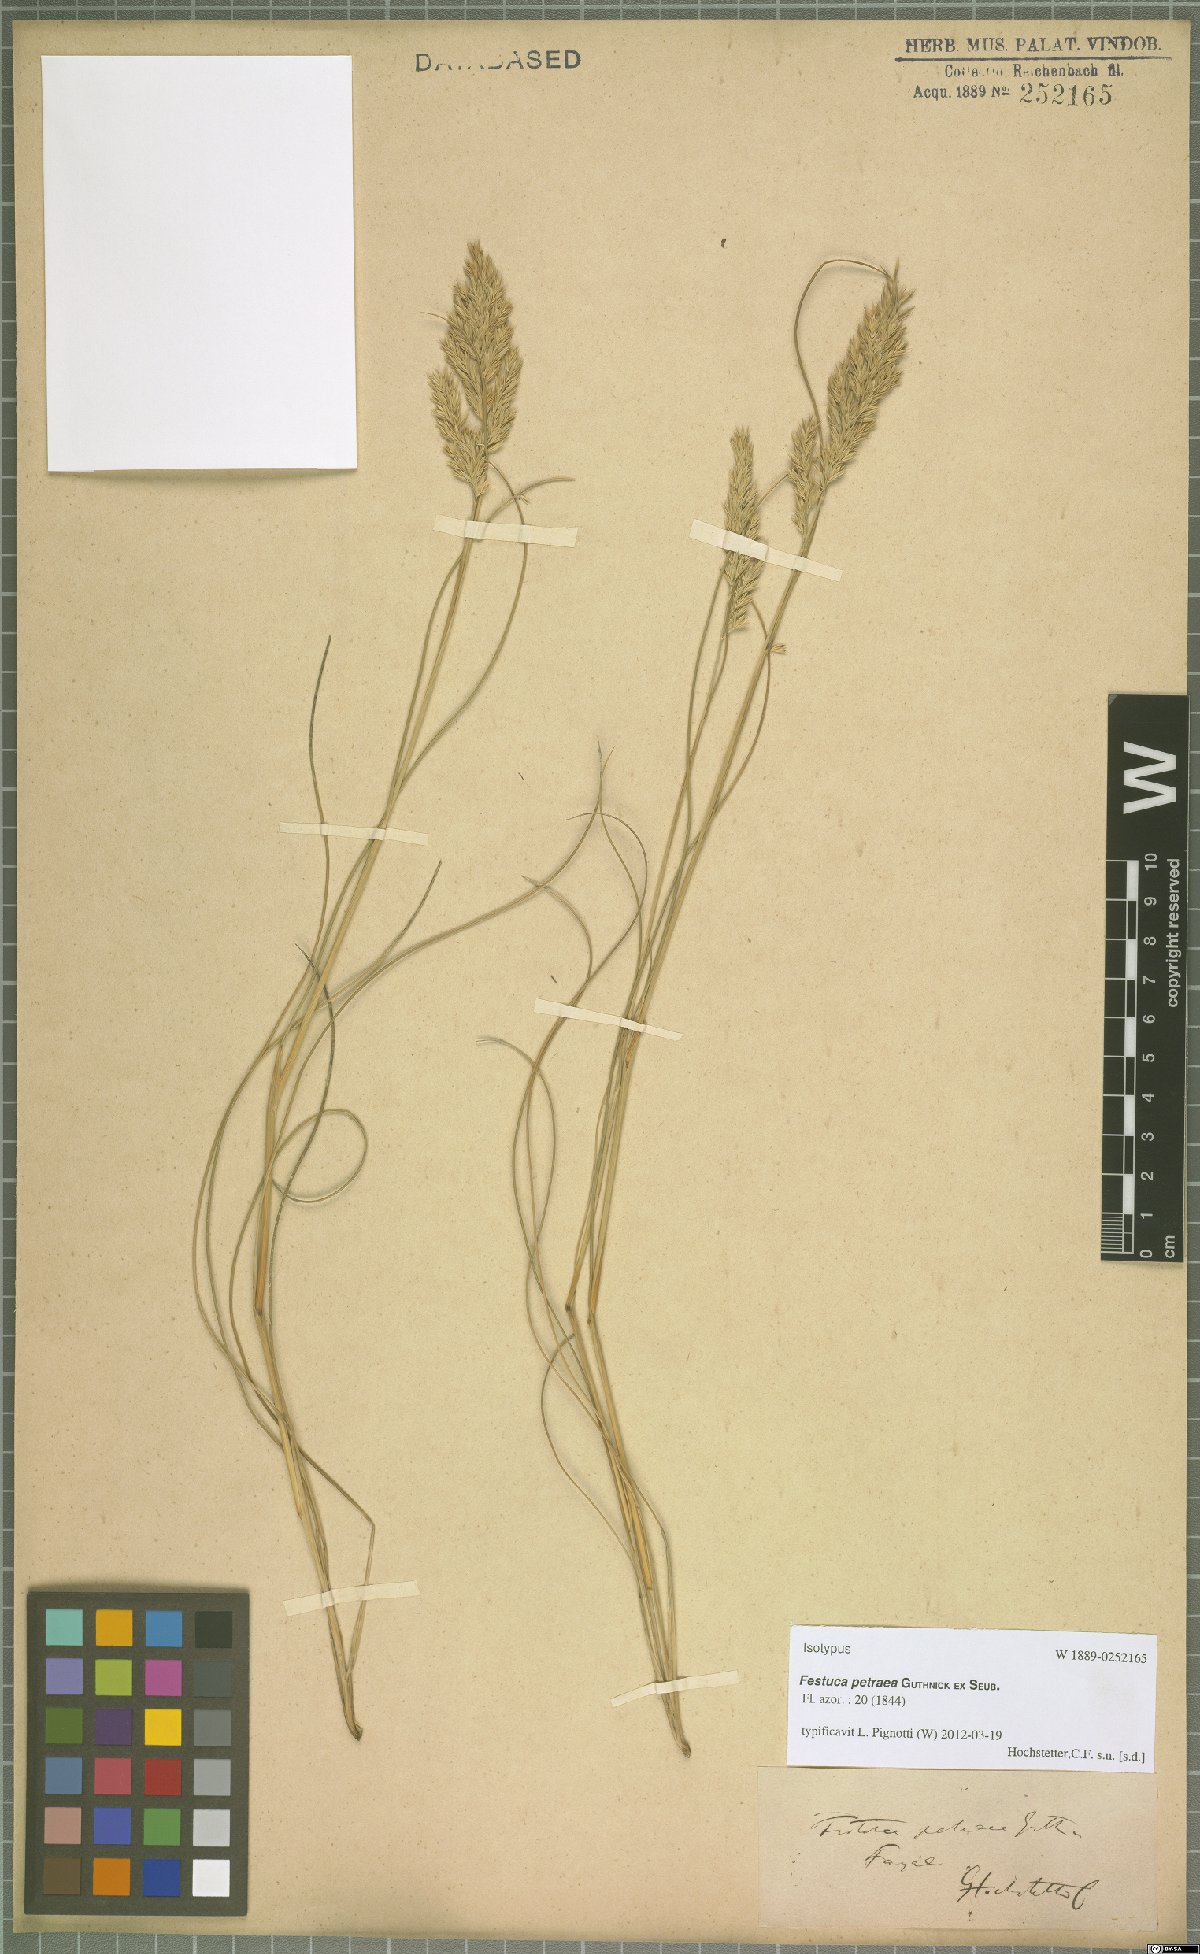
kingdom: Plantae
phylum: Tracheophyta
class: Liliopsida
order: Poales
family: Poaceae
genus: Festuca
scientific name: Festuca petraea
